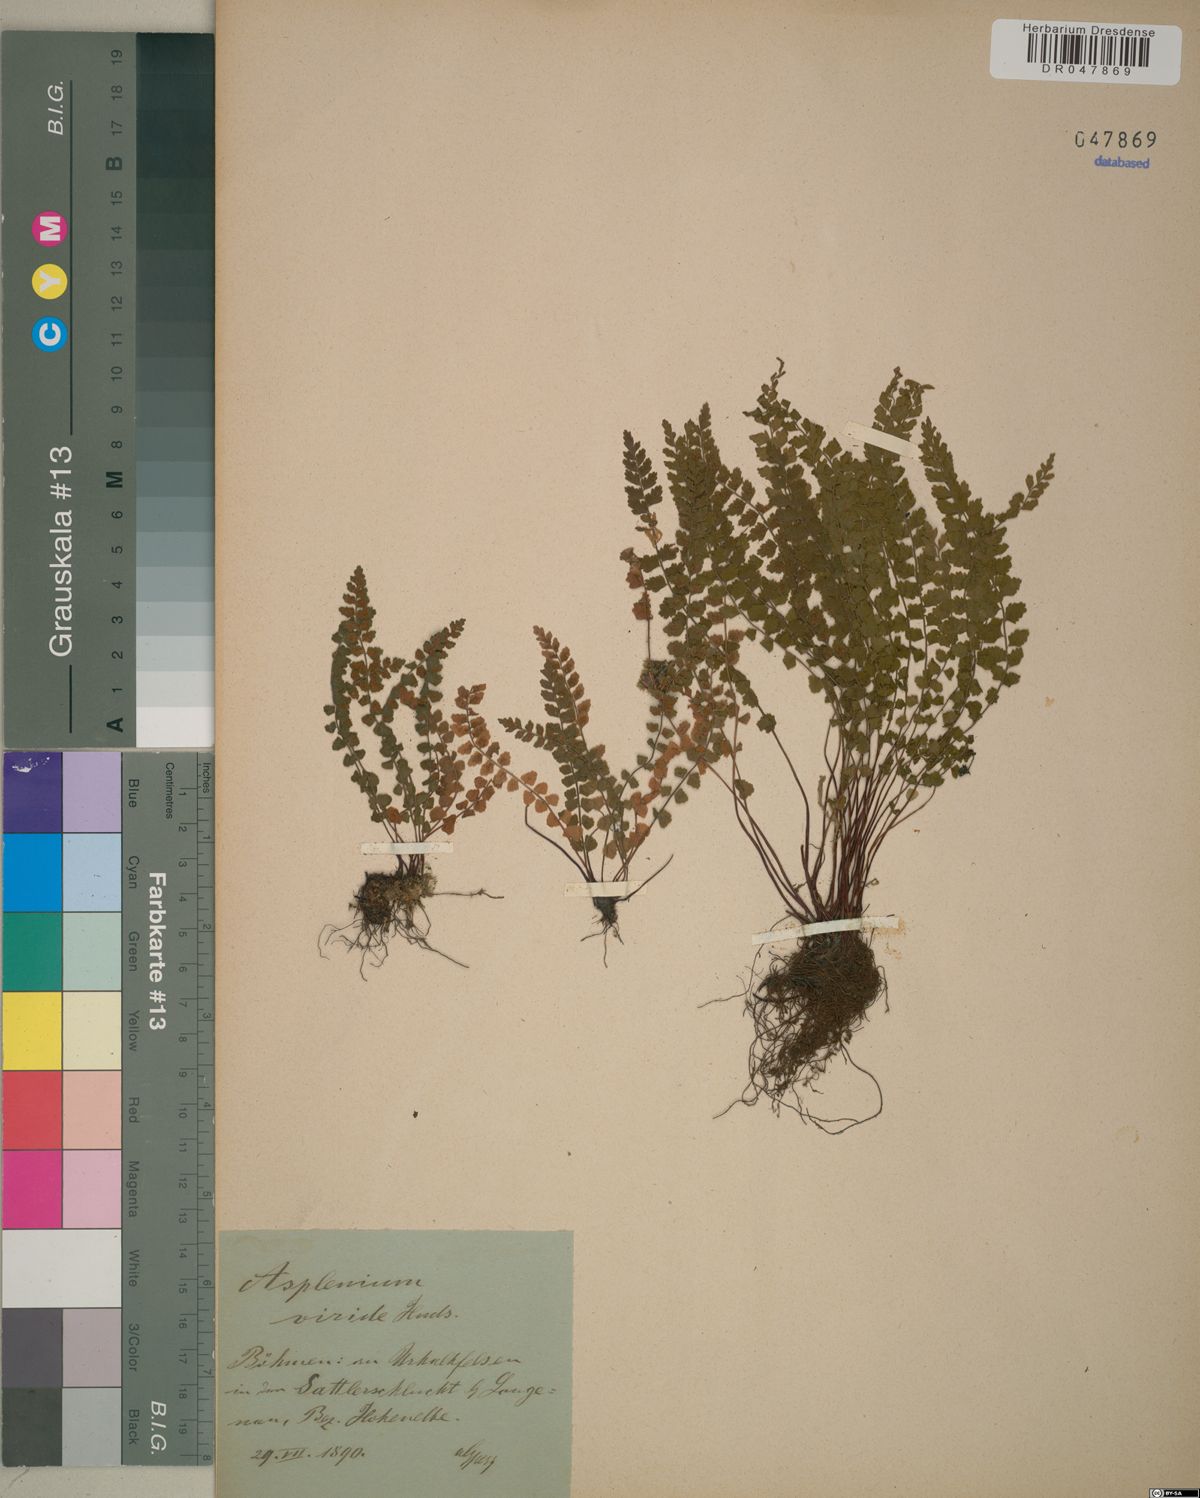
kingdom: Plantae
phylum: Tracheophyta
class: Polypodiopsida
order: Polypodiales
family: Aspleniaceae
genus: Asplenium
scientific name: Asplenium viride
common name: Green spleenwort
